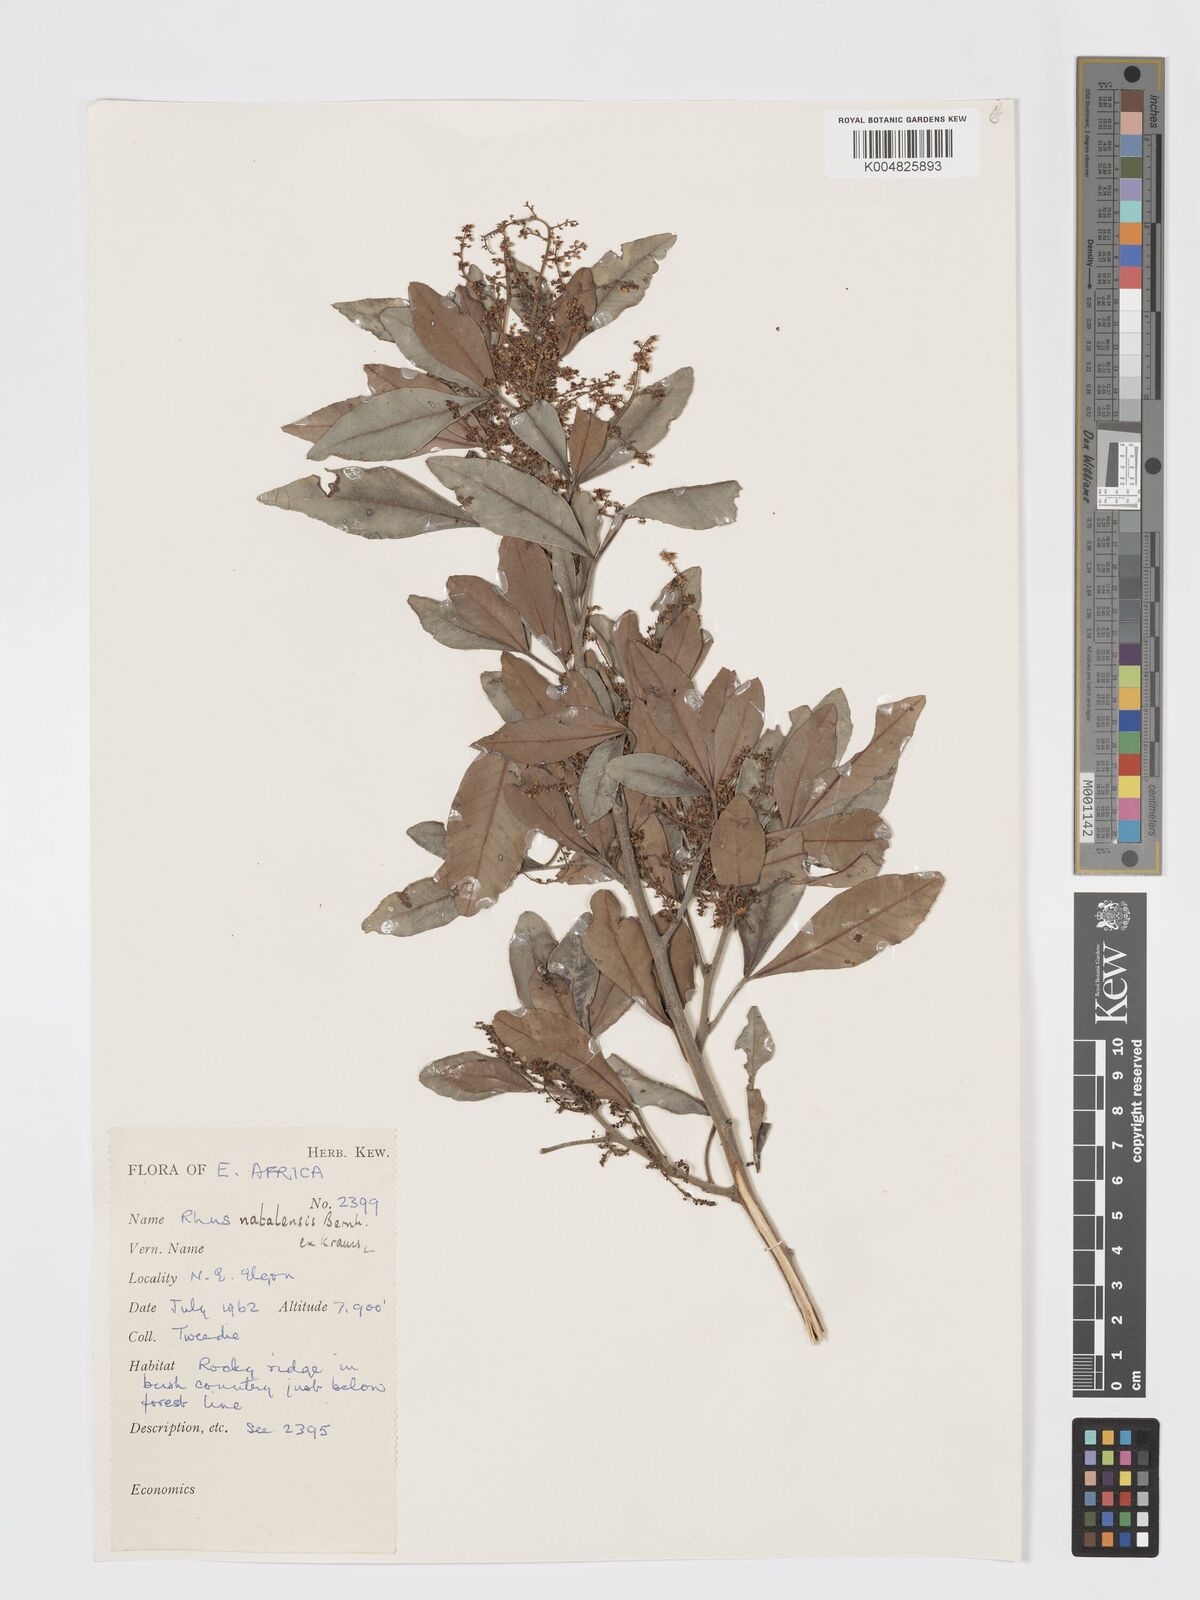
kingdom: Plantae
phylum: Tracheophyta
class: Magnoliopsida
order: Sapindales
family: Anacardiaceae
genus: Searsia
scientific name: Searsia natalensis
